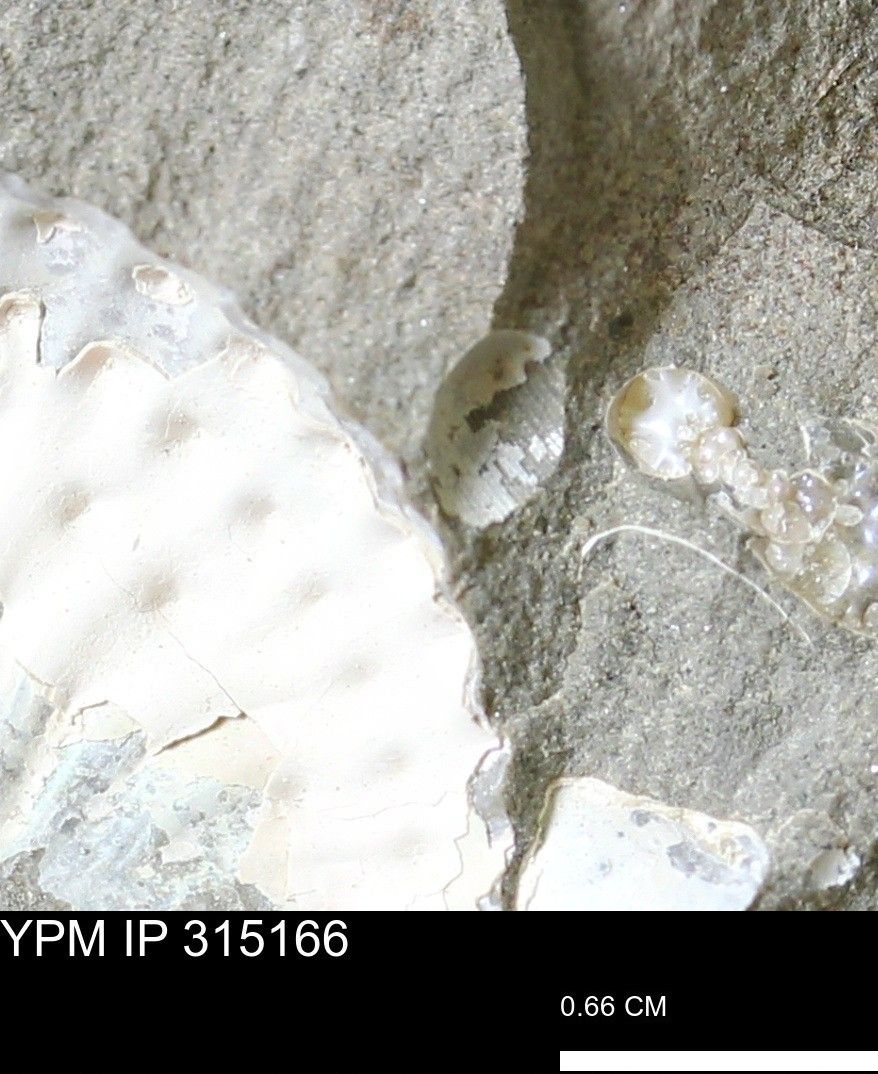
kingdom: Animalia
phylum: Mollusca
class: Gastropoda
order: Stylommatophora
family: Clausiliidae
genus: Idyla
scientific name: Idyla
